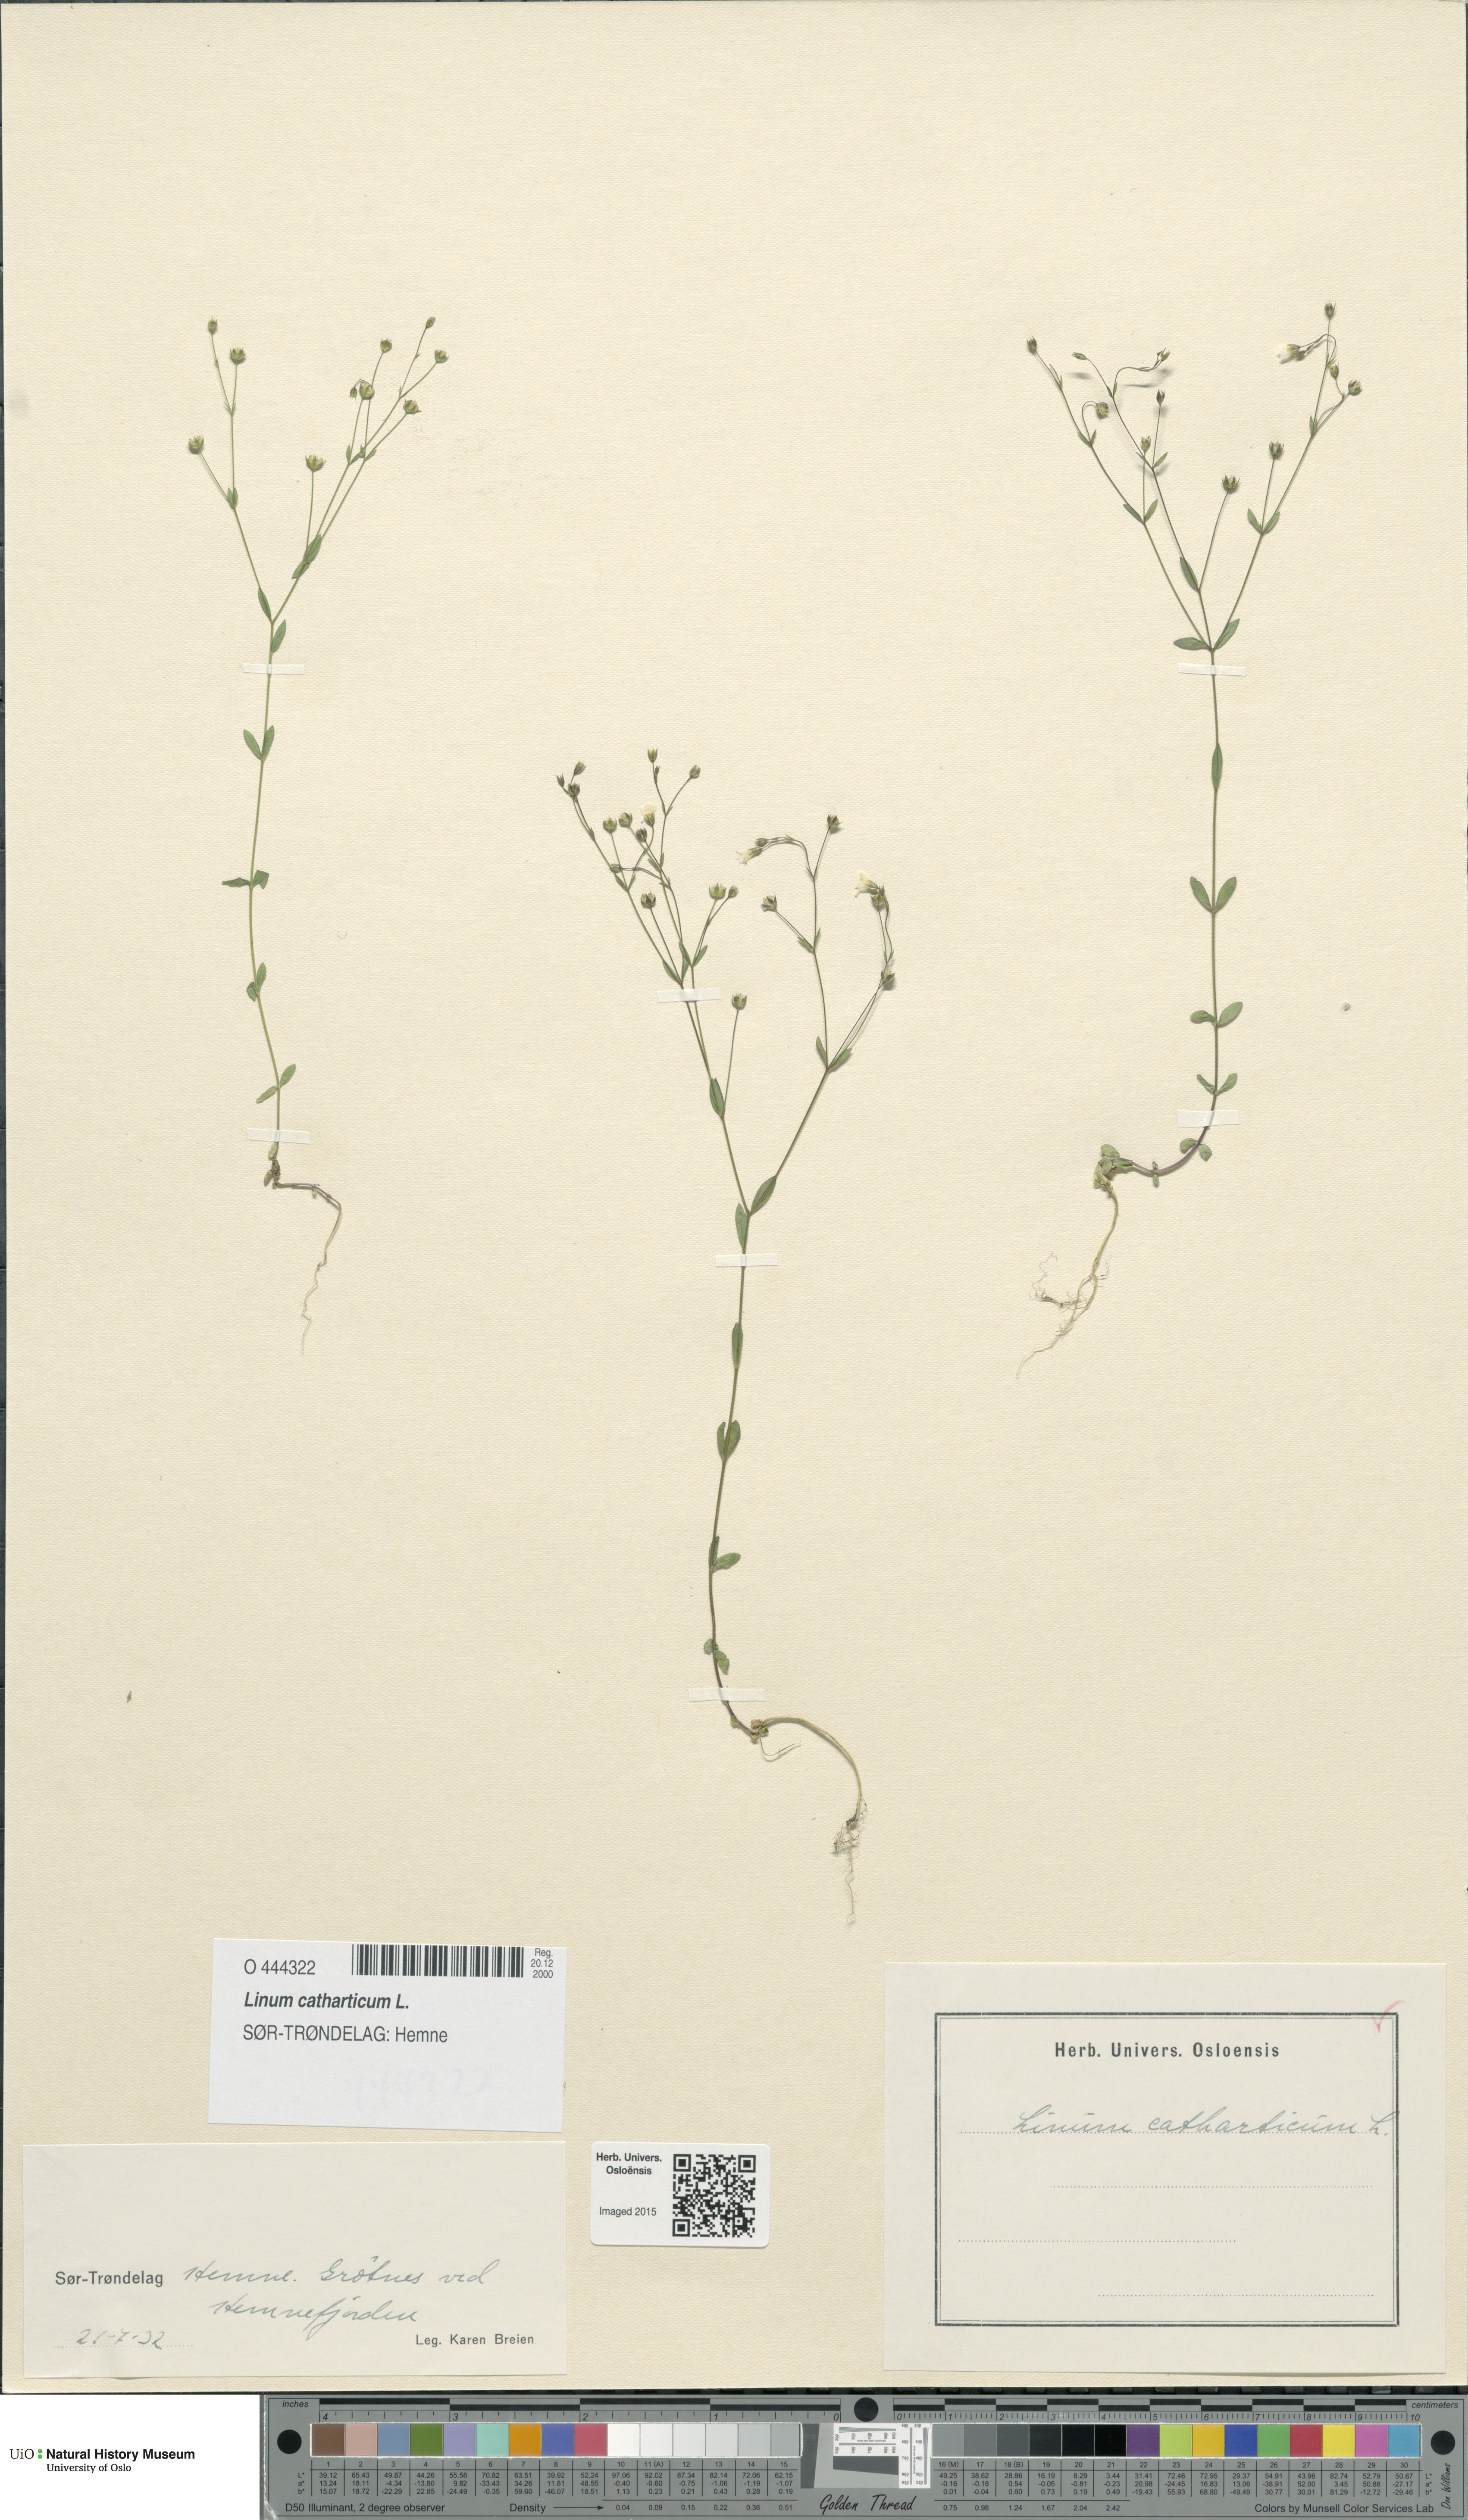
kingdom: Plantae
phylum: Tracheophyta
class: Magnoliopsida
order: Malpighiales
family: Linaceae
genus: Linum
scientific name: Linum catharticum
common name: Fairy flax
